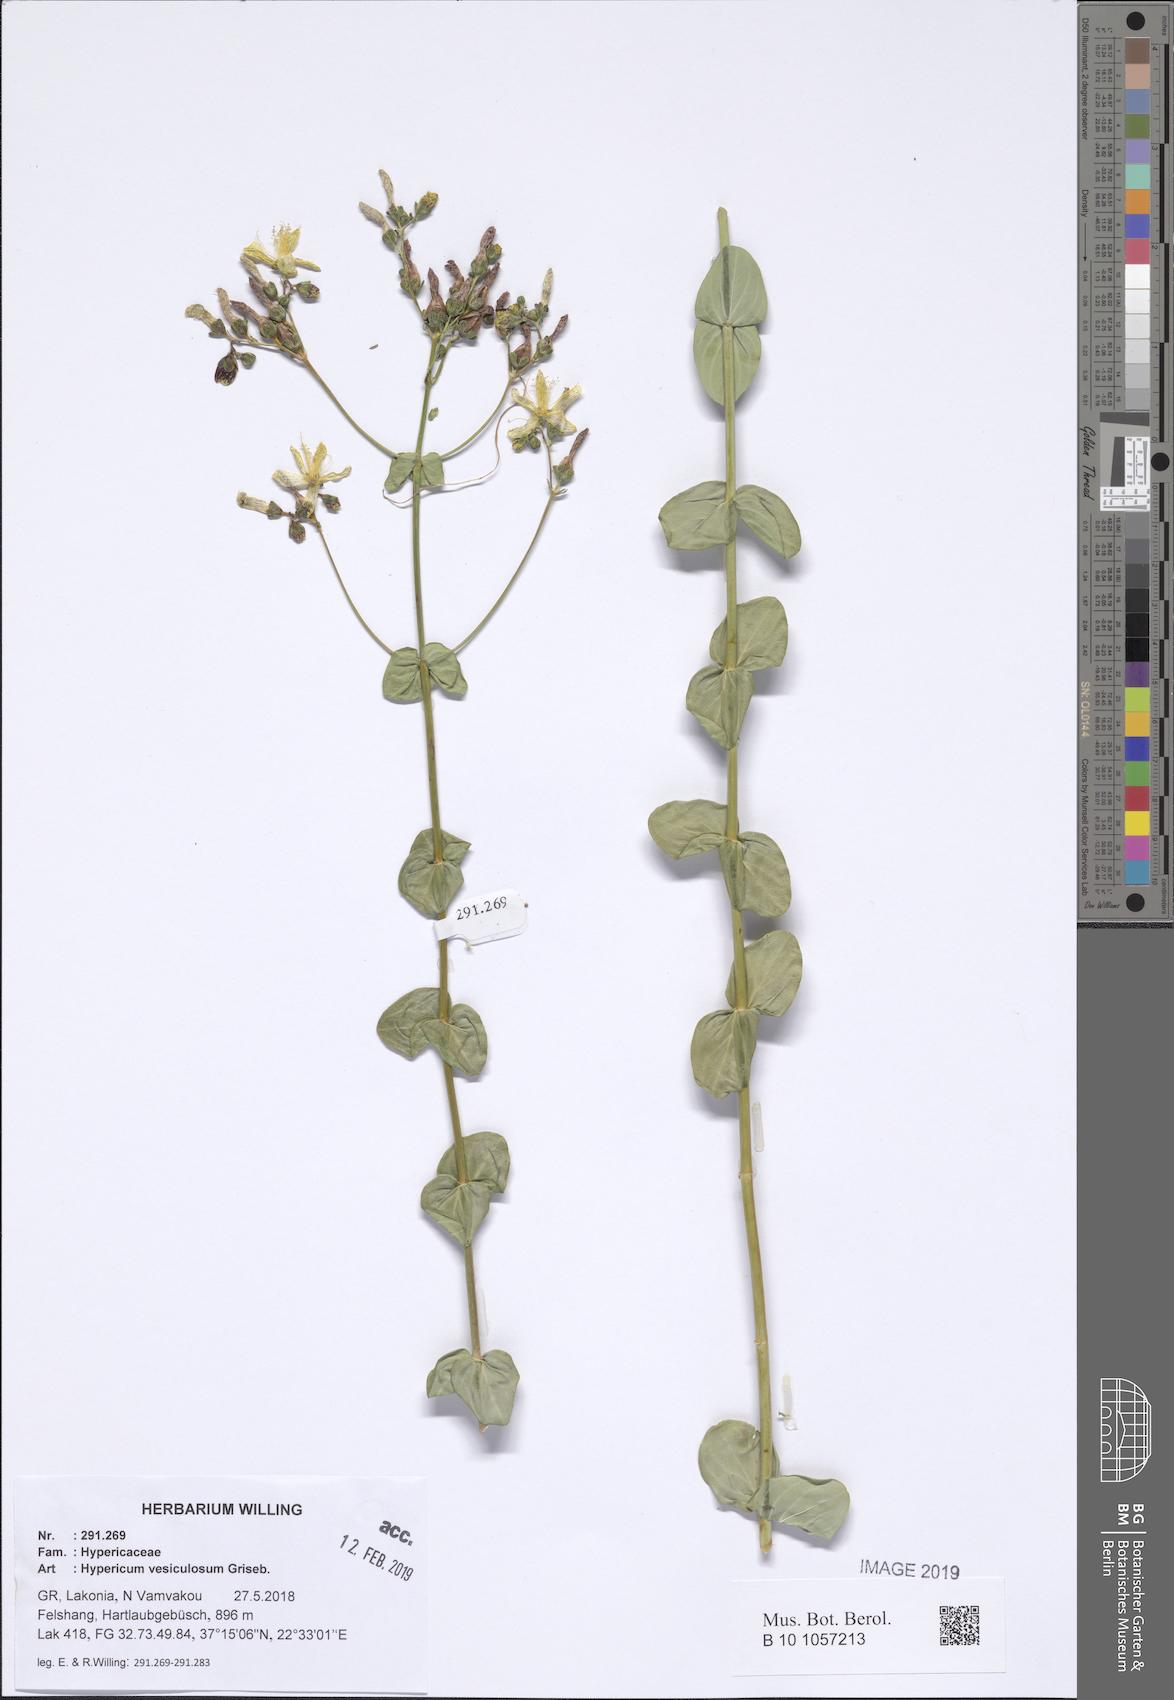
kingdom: Plantae
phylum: Tracheophyta
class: Magnoliopsida
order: Malpighiales
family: Hypericaceae
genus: Hypericum
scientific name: Hypericum vesiculosum
